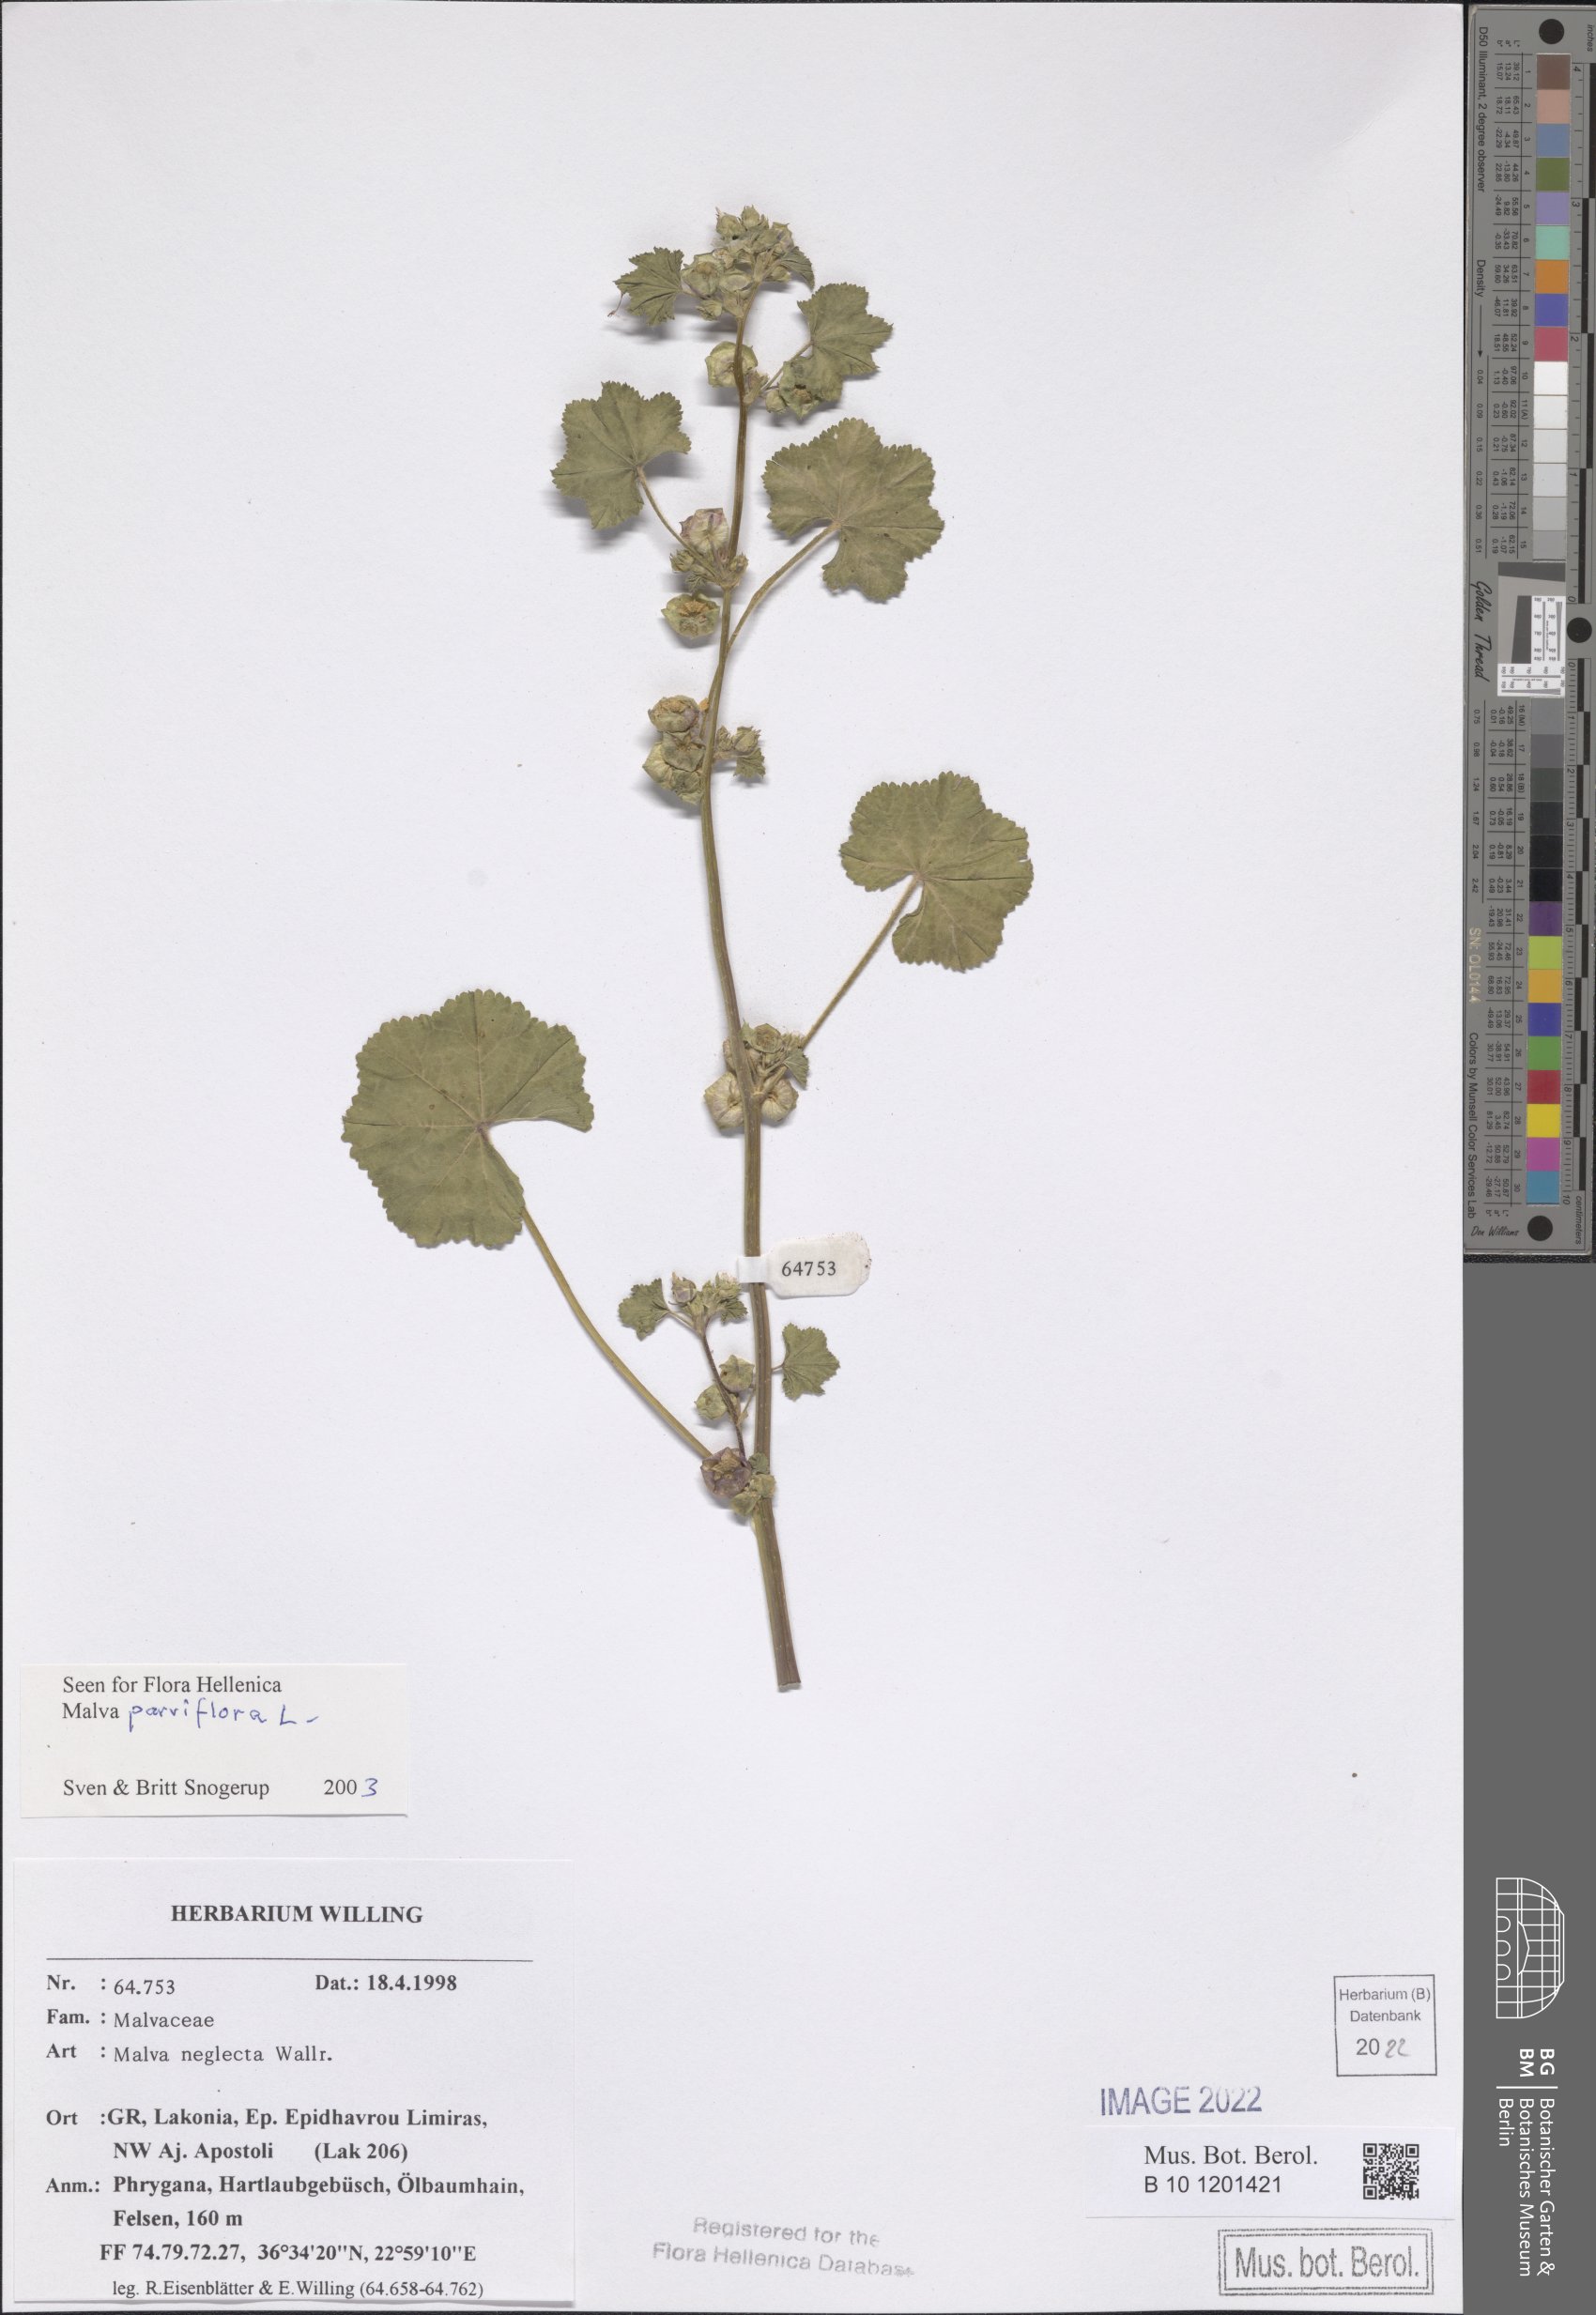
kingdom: Plantae
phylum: Tracheophyta
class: Magnoliopsida
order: Malvales
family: Malvaceae
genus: Malva
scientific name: Malva parviflora
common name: Least mallow
